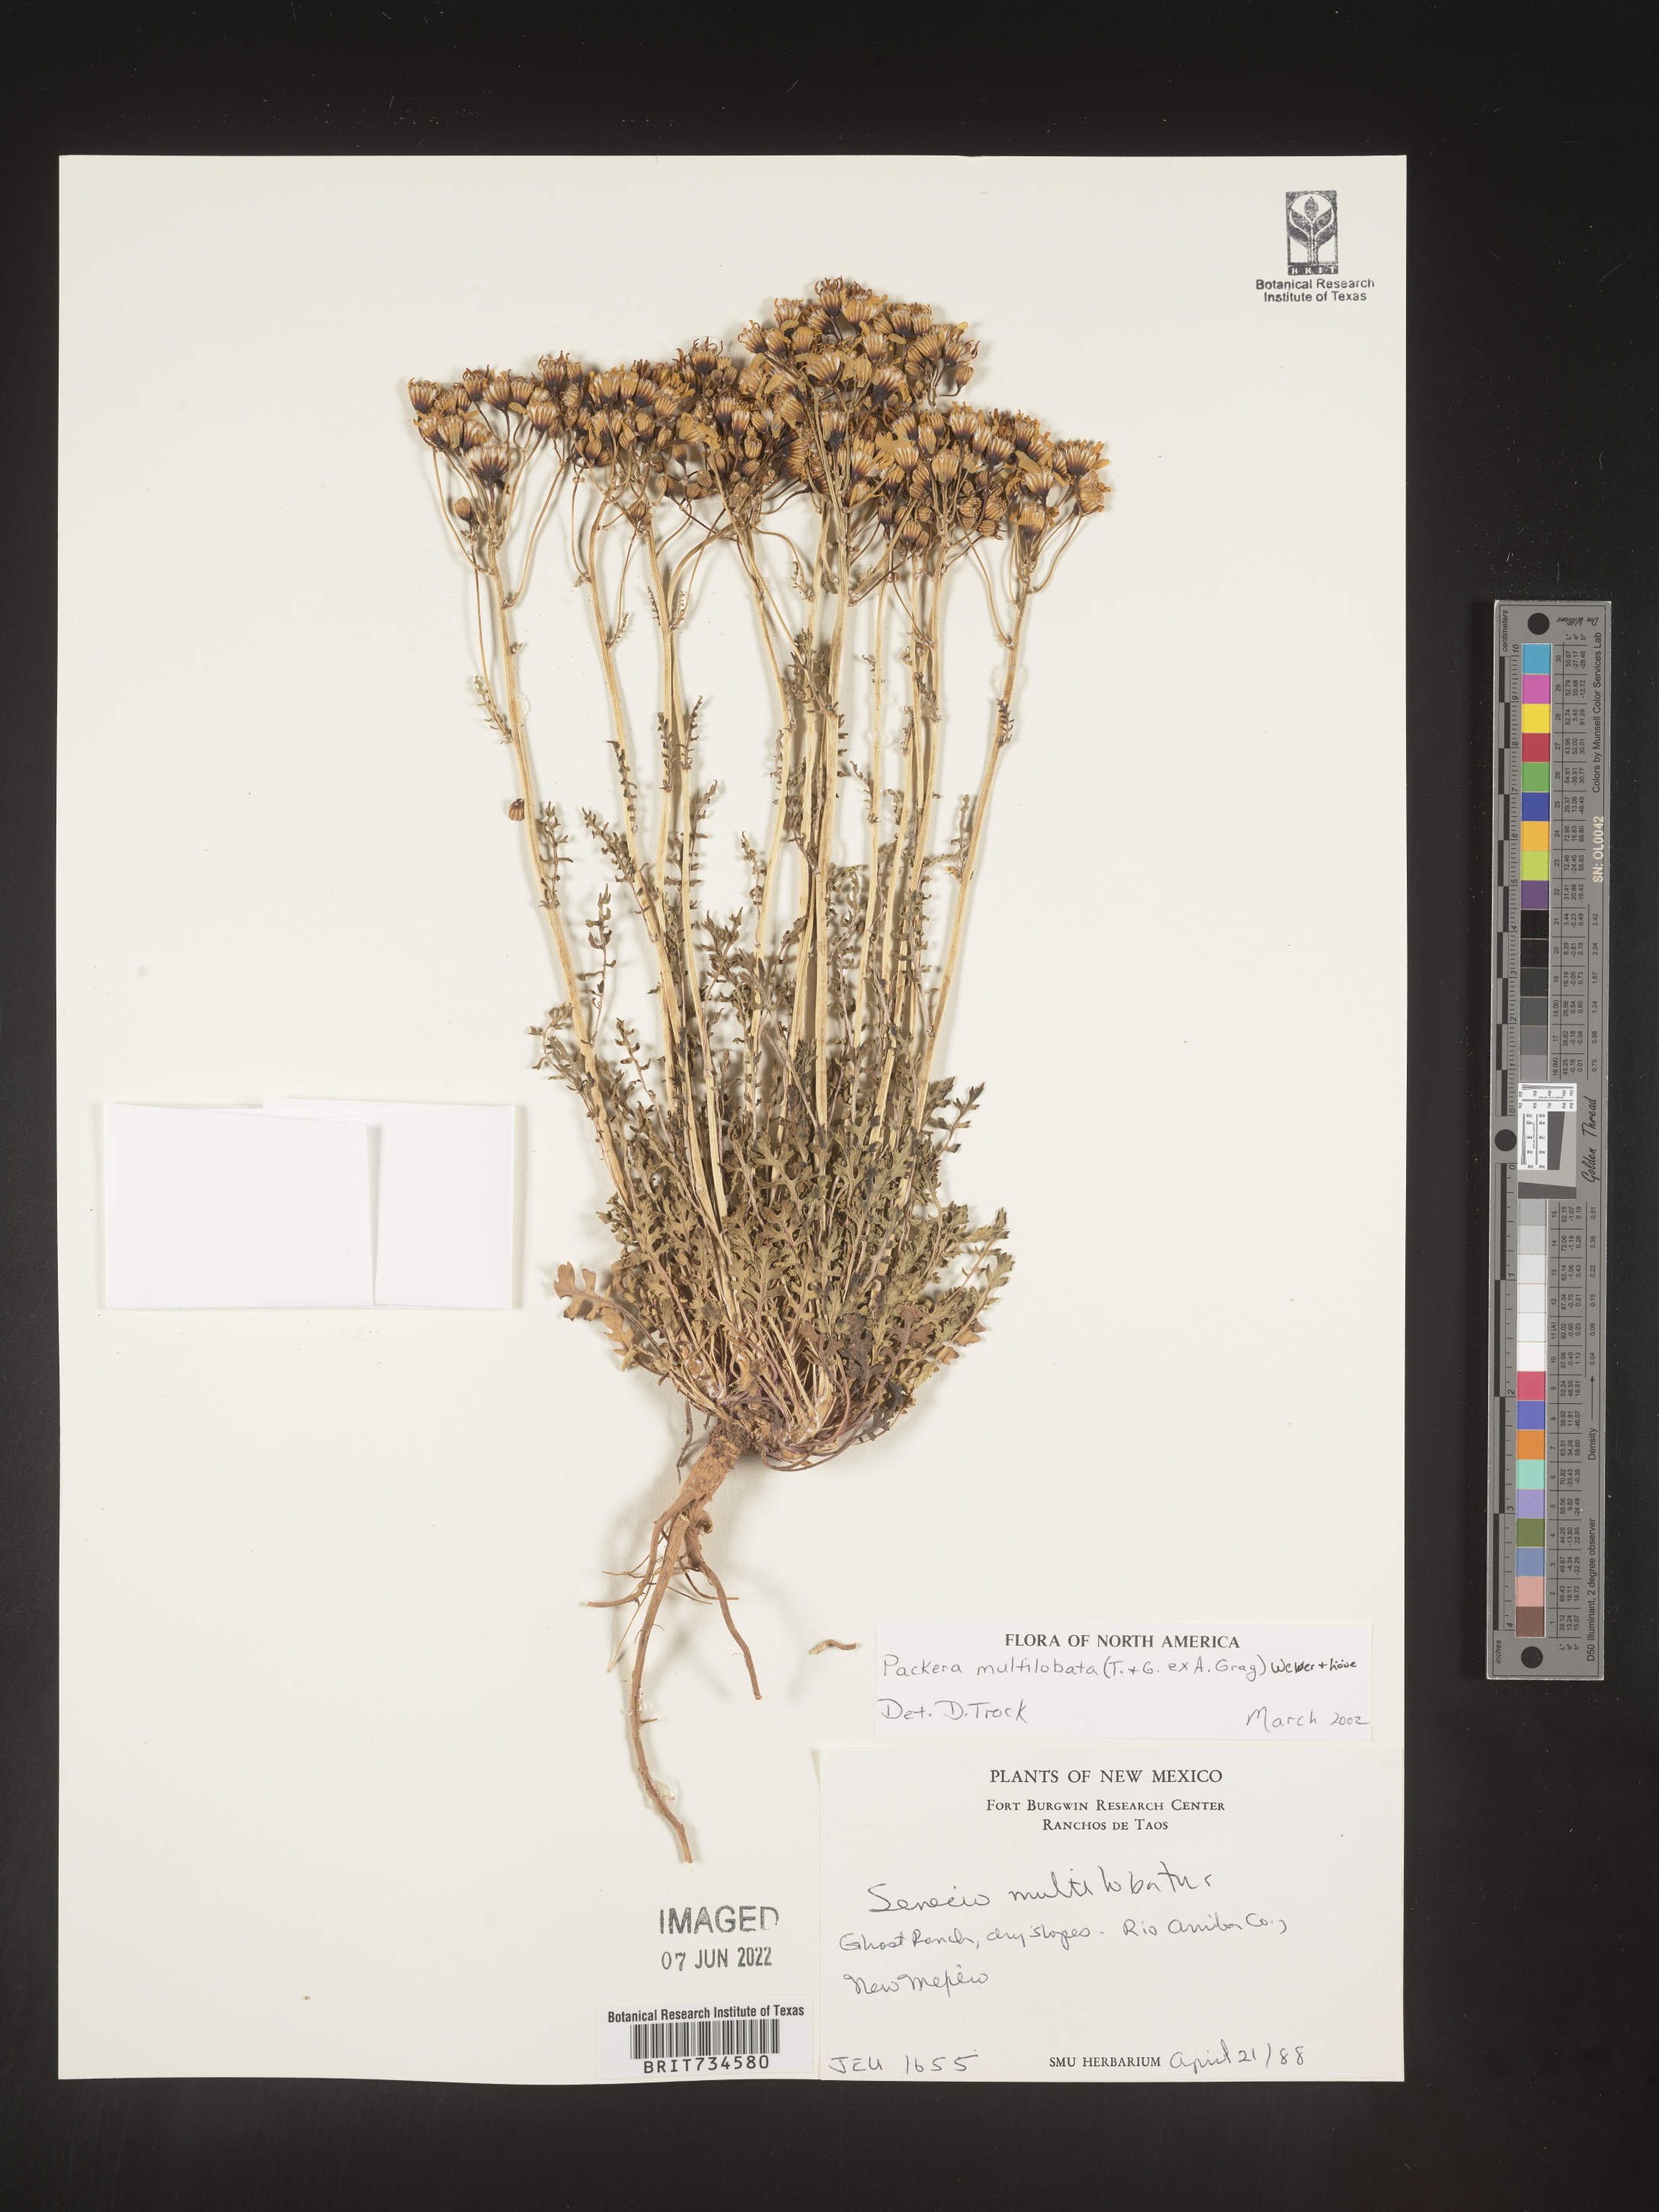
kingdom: Plantae
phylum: Tracheophyta
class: Magnoliopsida
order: Asterales
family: Asteraceae
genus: Packera
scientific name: Packera multilobata
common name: Lobe-leaf groundsel
